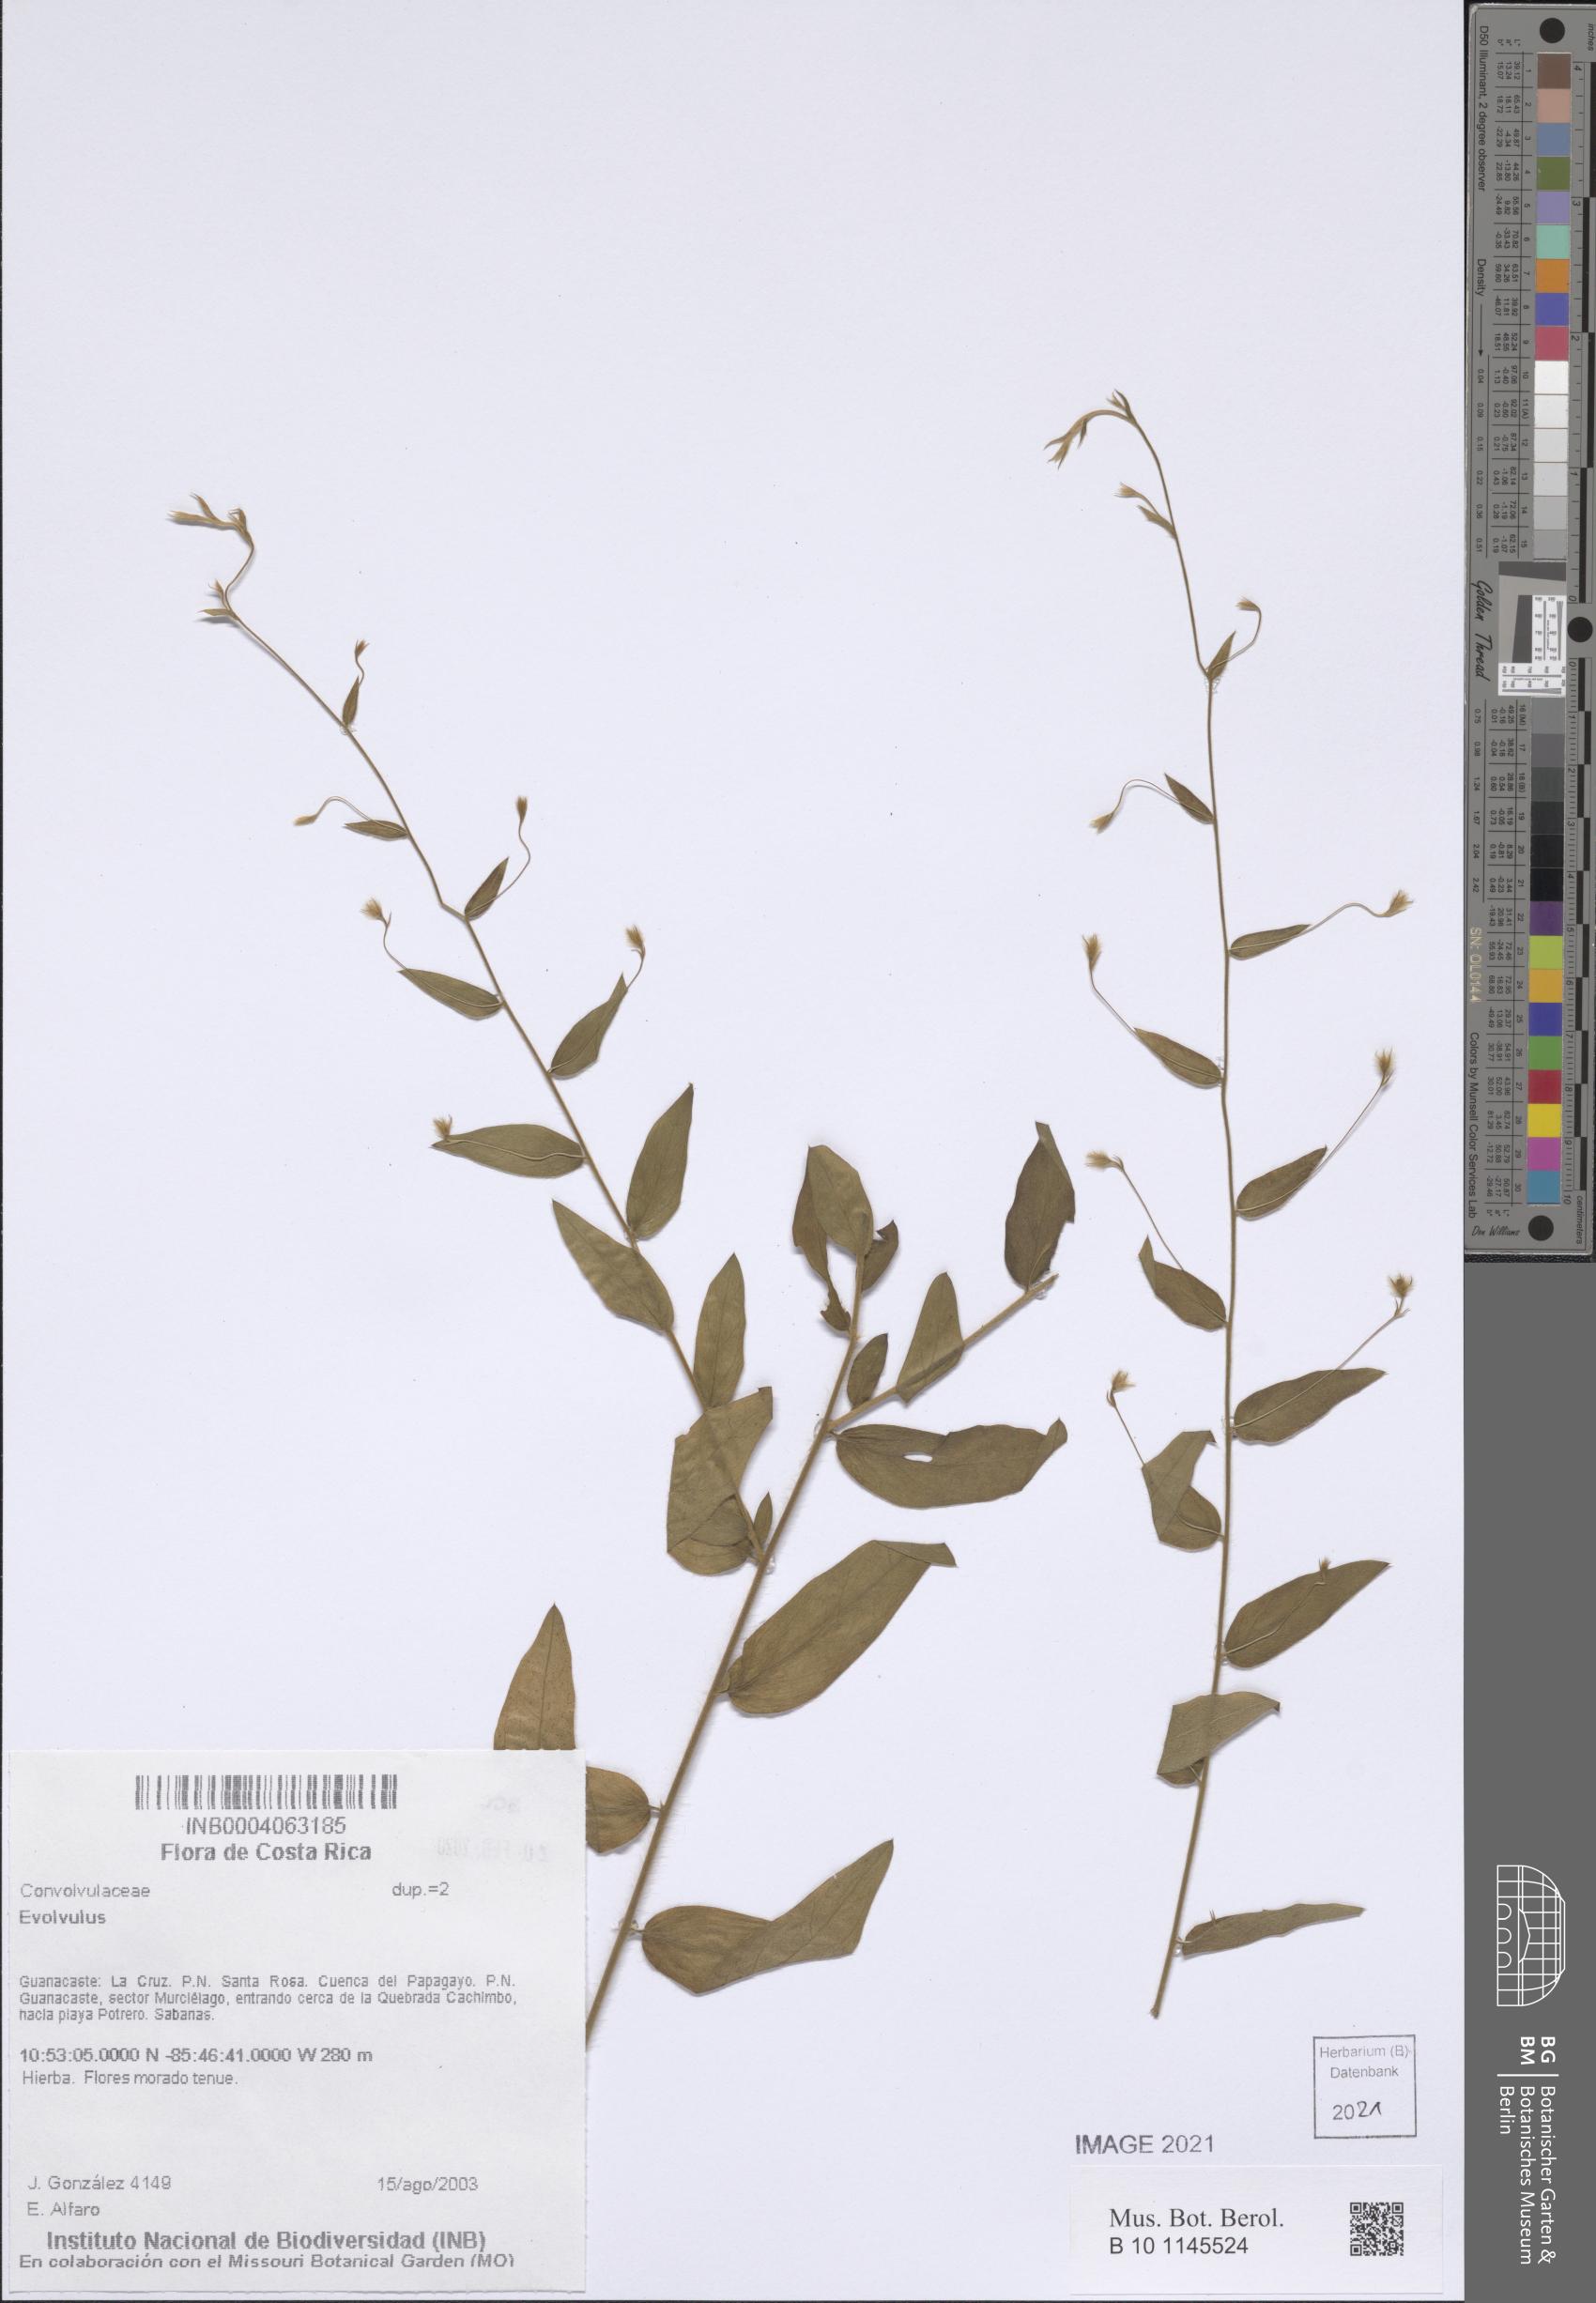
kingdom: Plantae
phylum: Tracheophyta
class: Magnoliopsida
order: Solanales
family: Convolvulaceae
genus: Evolvulus
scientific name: Evolvulus
